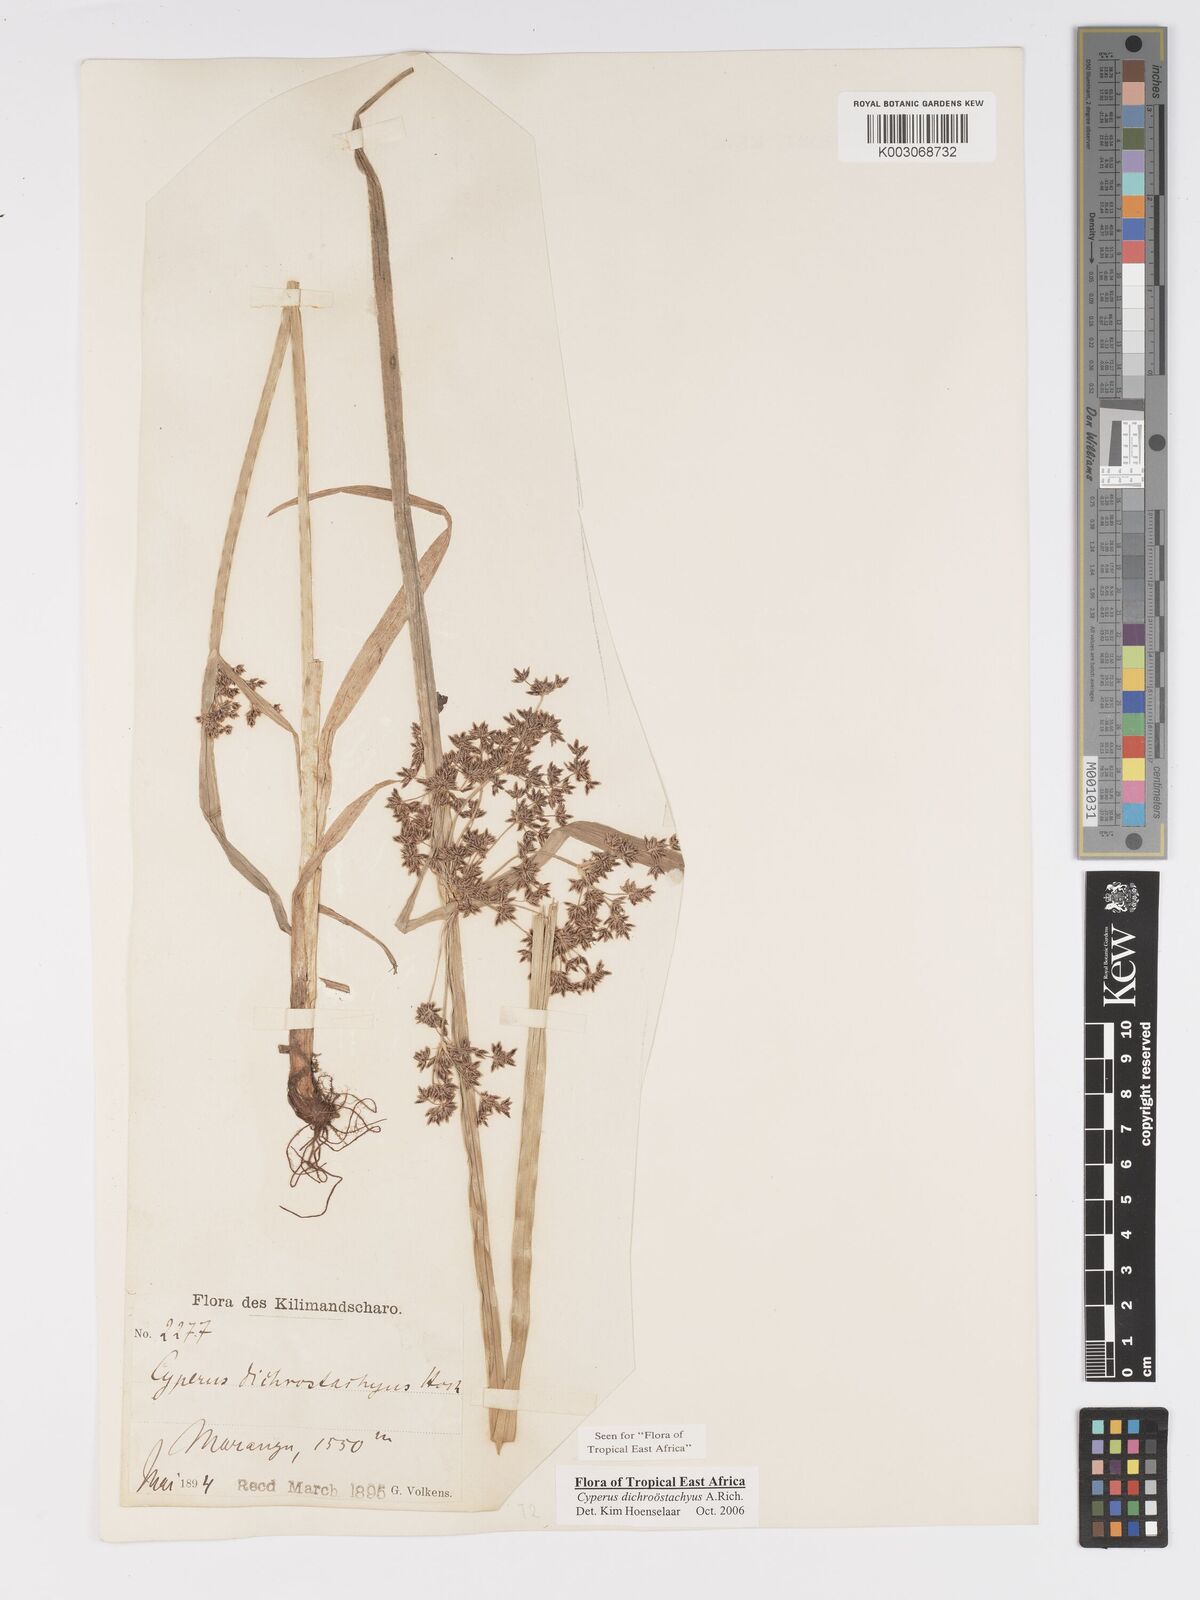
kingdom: Plantae
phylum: Tracheophyta
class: Liliopsida
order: Poales
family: Cyperaceae
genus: Cyperus
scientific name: Cyperus dichrostachyus
